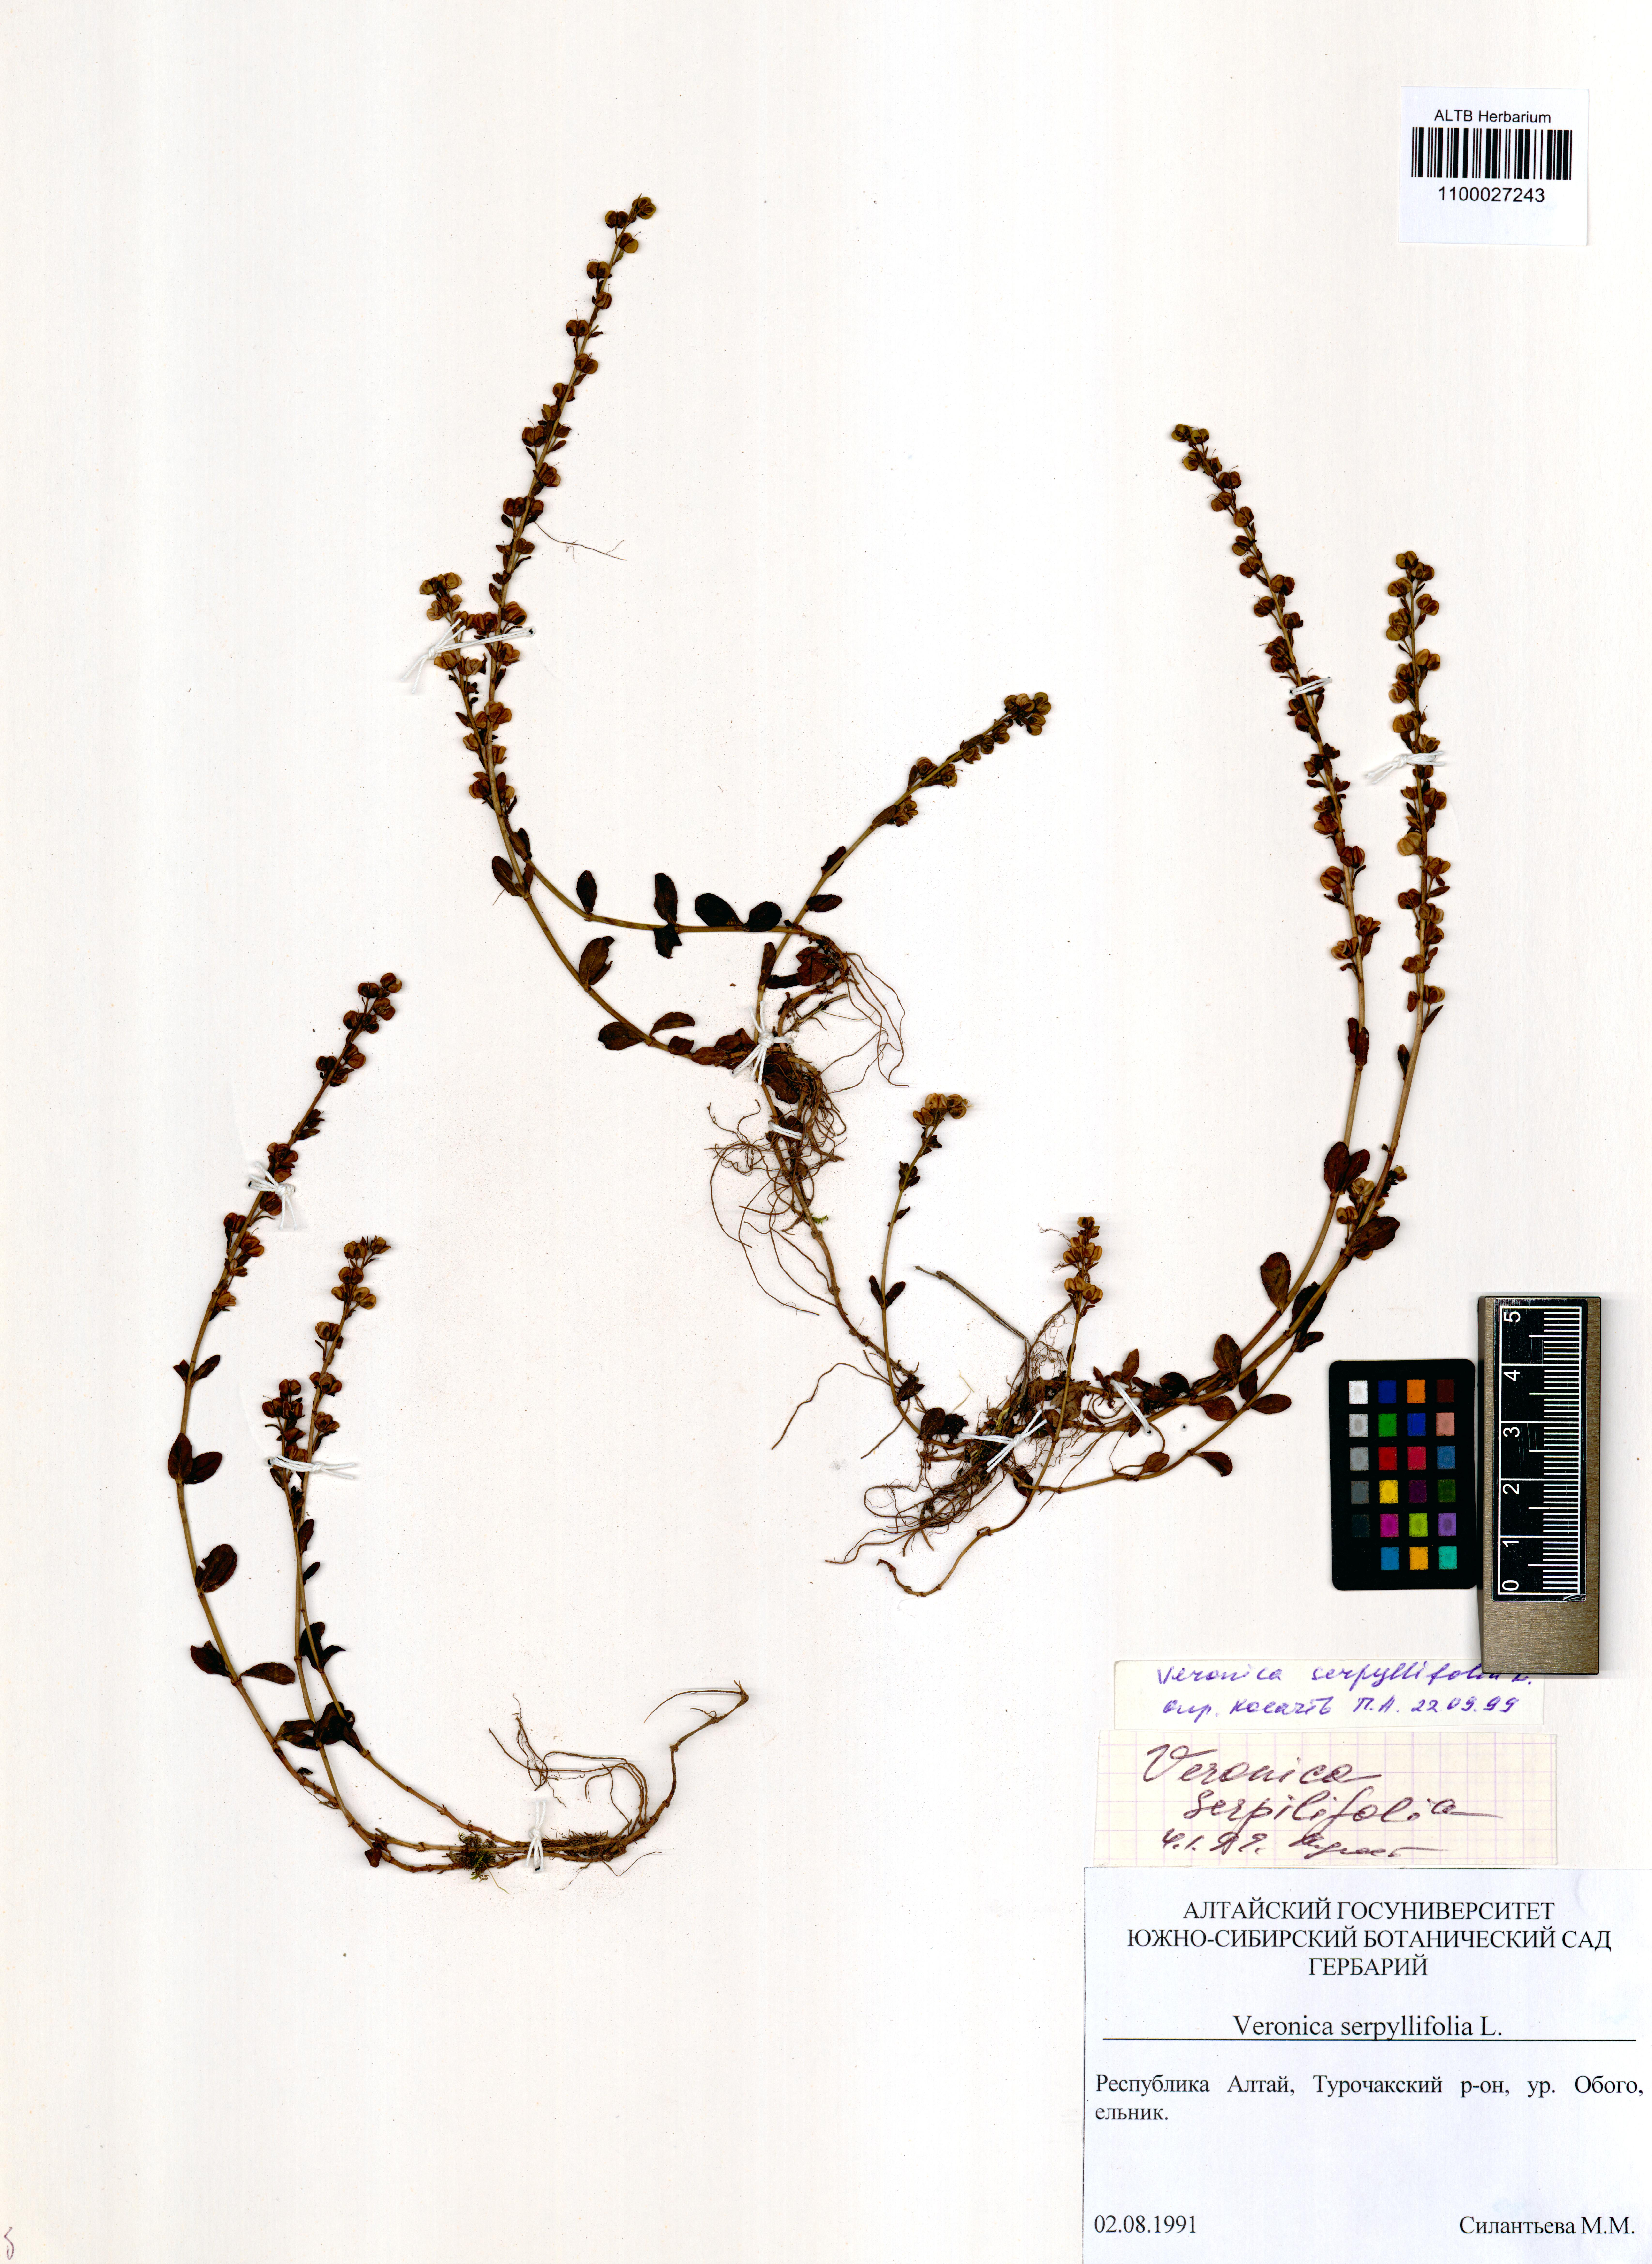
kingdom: Plantae
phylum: Tracheophyta
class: Magnoliopsida
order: Lamiales
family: Plantaginaceae
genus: Veronica
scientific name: Veronica serpyllifolia
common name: Thyme-leaved speedwell
